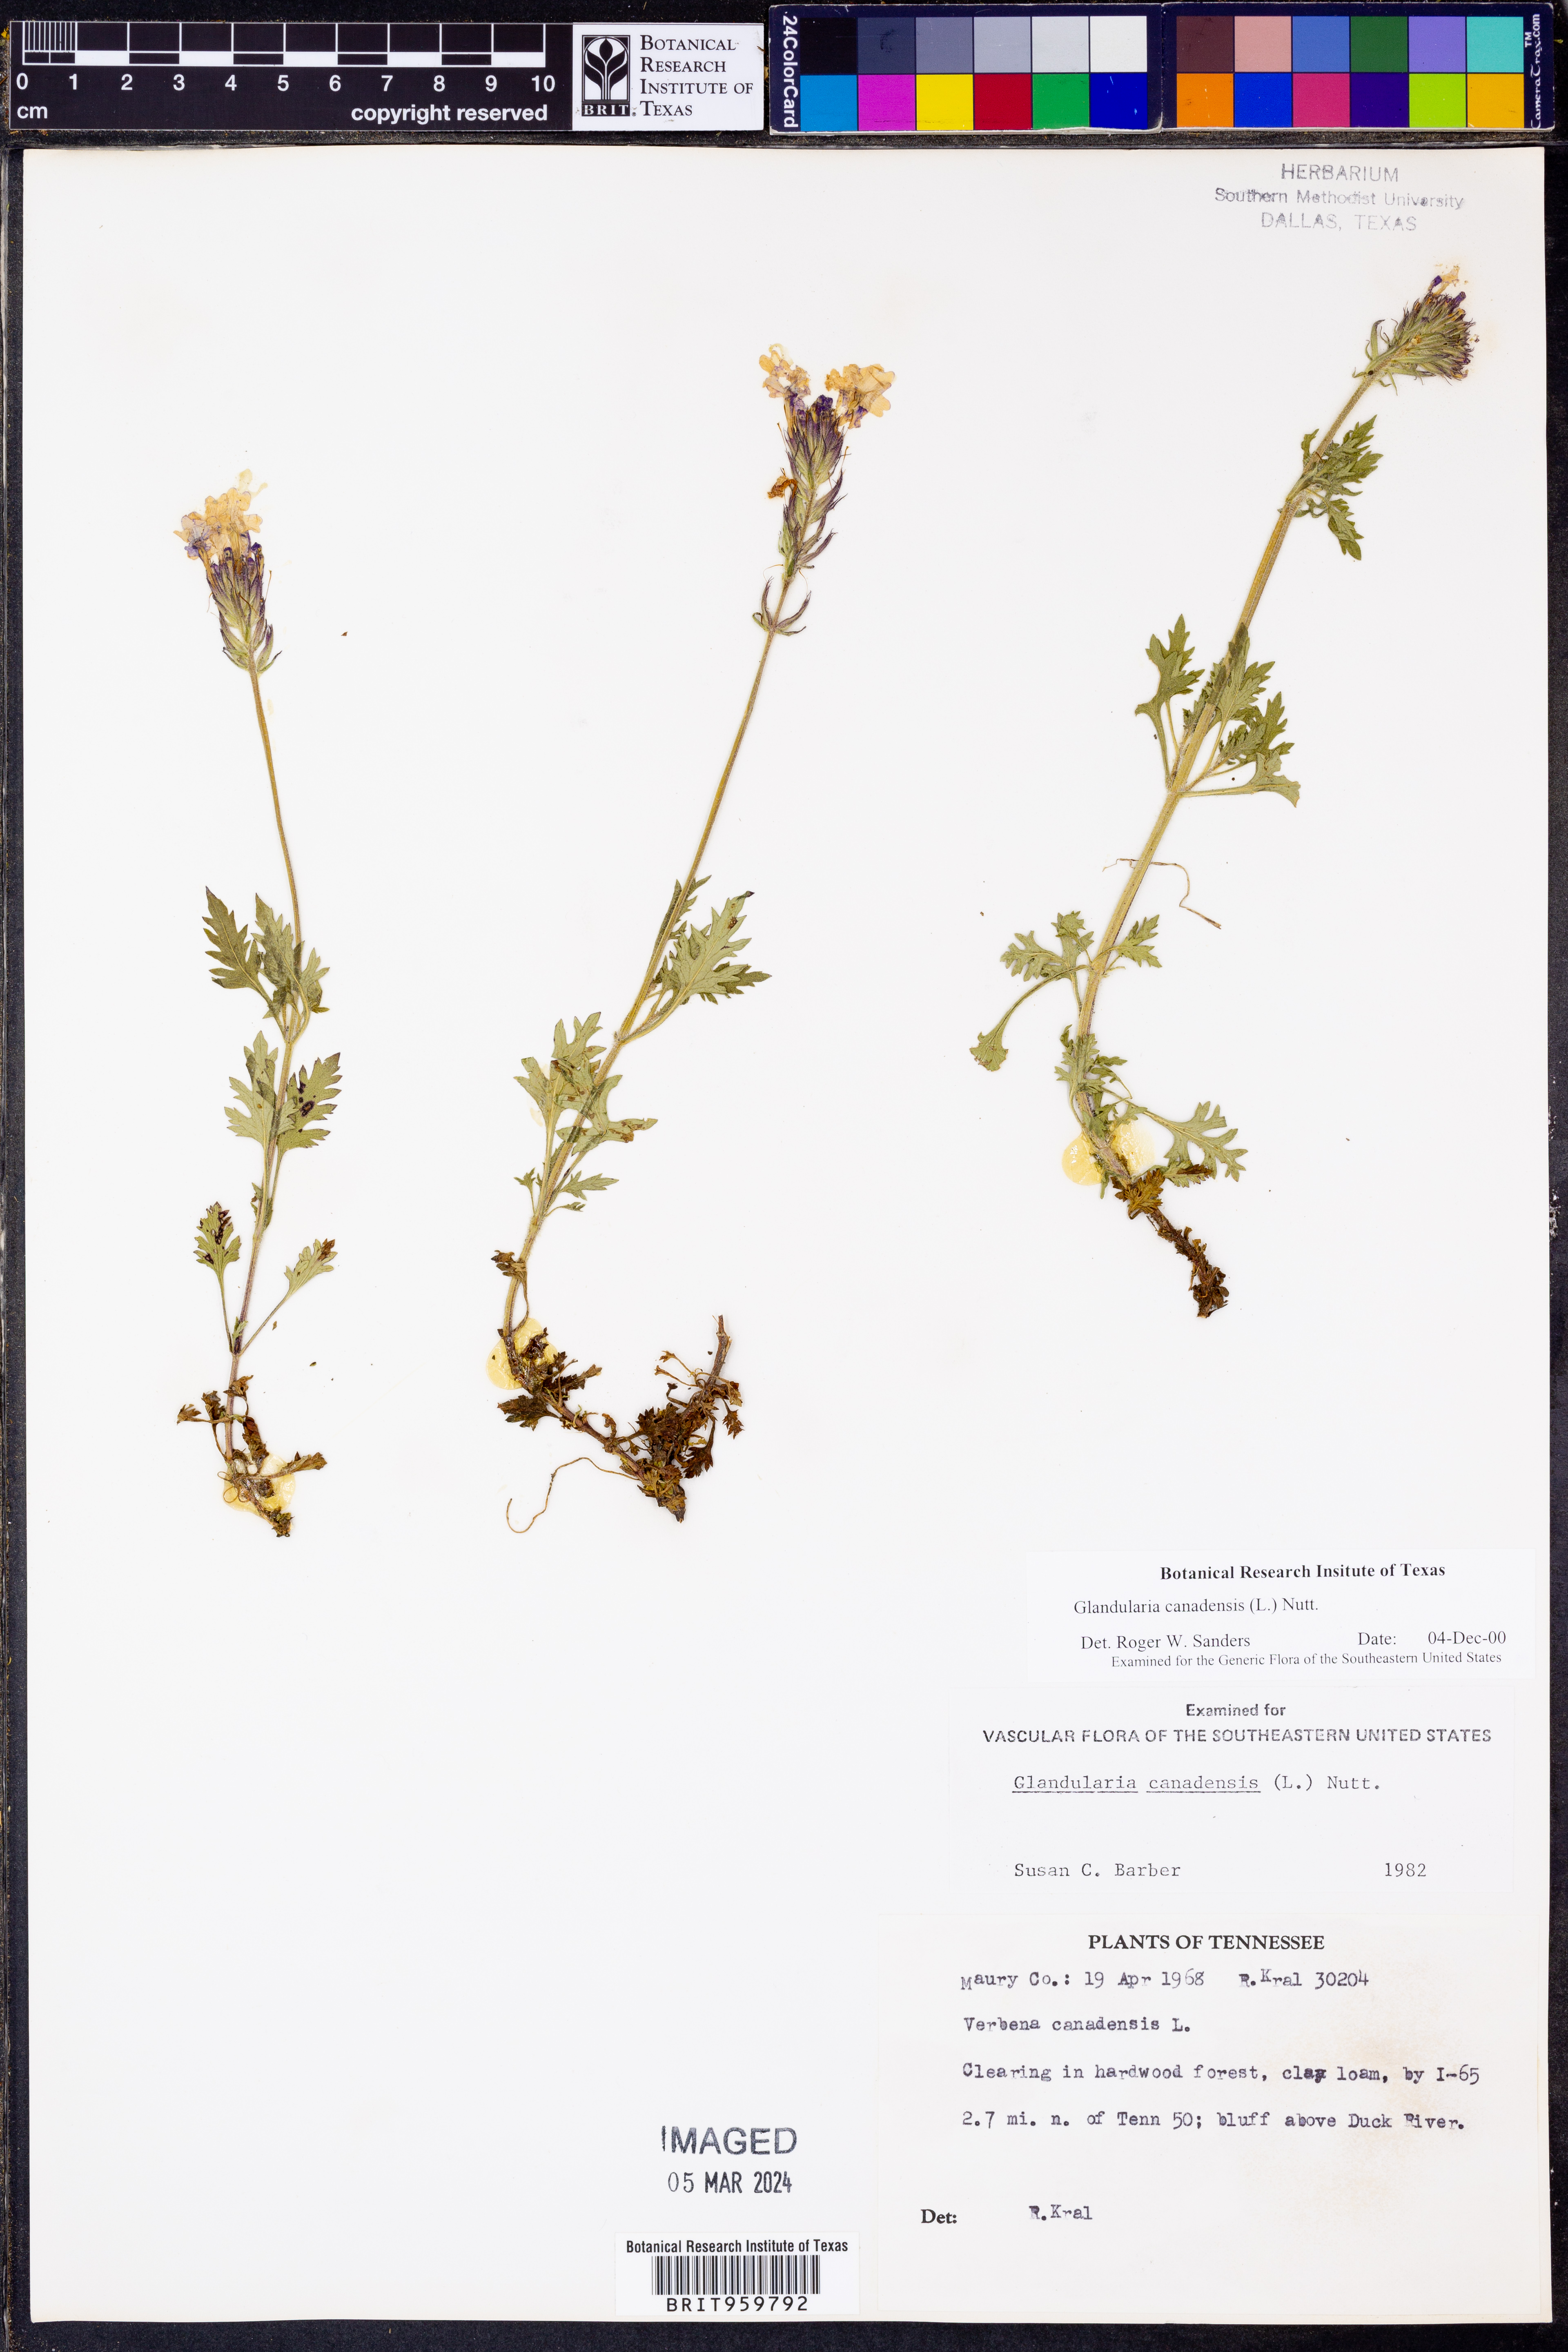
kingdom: Plantae
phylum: Tracheophyta
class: Magnoliopsida
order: Lamiales
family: Verbenaceae
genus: Verbena
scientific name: Verbena canadensis
